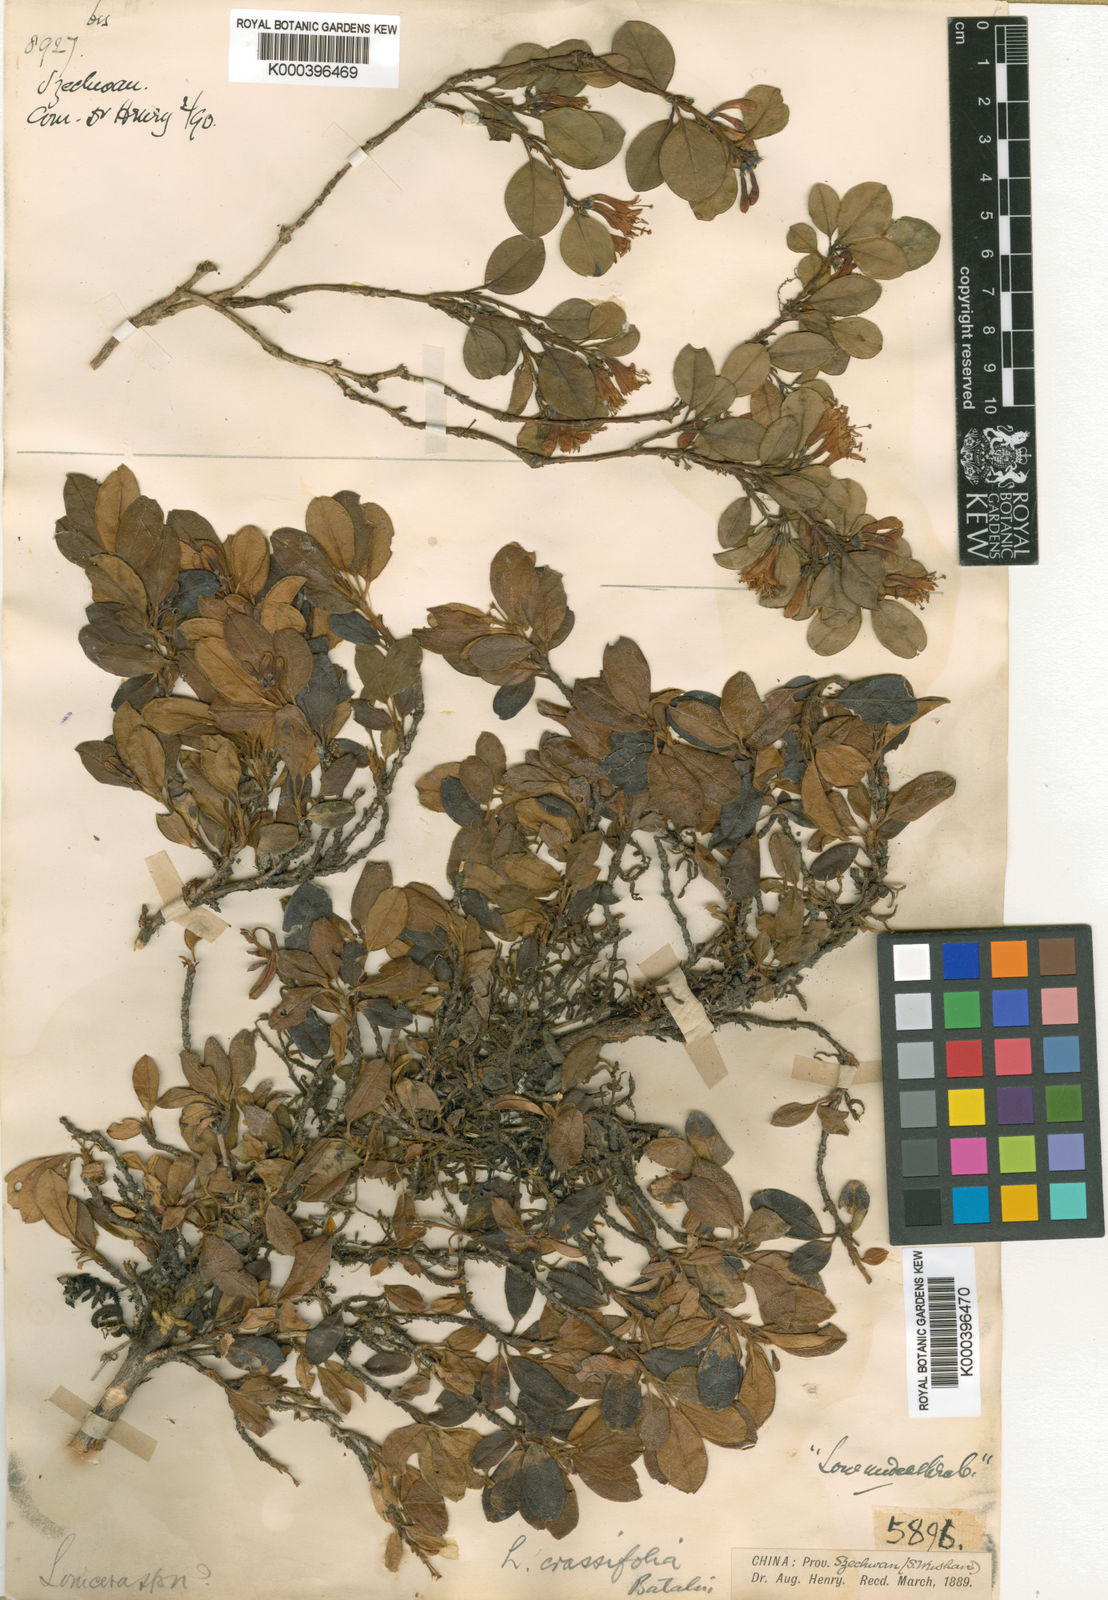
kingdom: Plantae
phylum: Tracheophyta
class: Magnoliopsida
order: Dipsacales
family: Caprifoliaceae
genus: Lonicera
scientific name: Lonicera crassifolia
